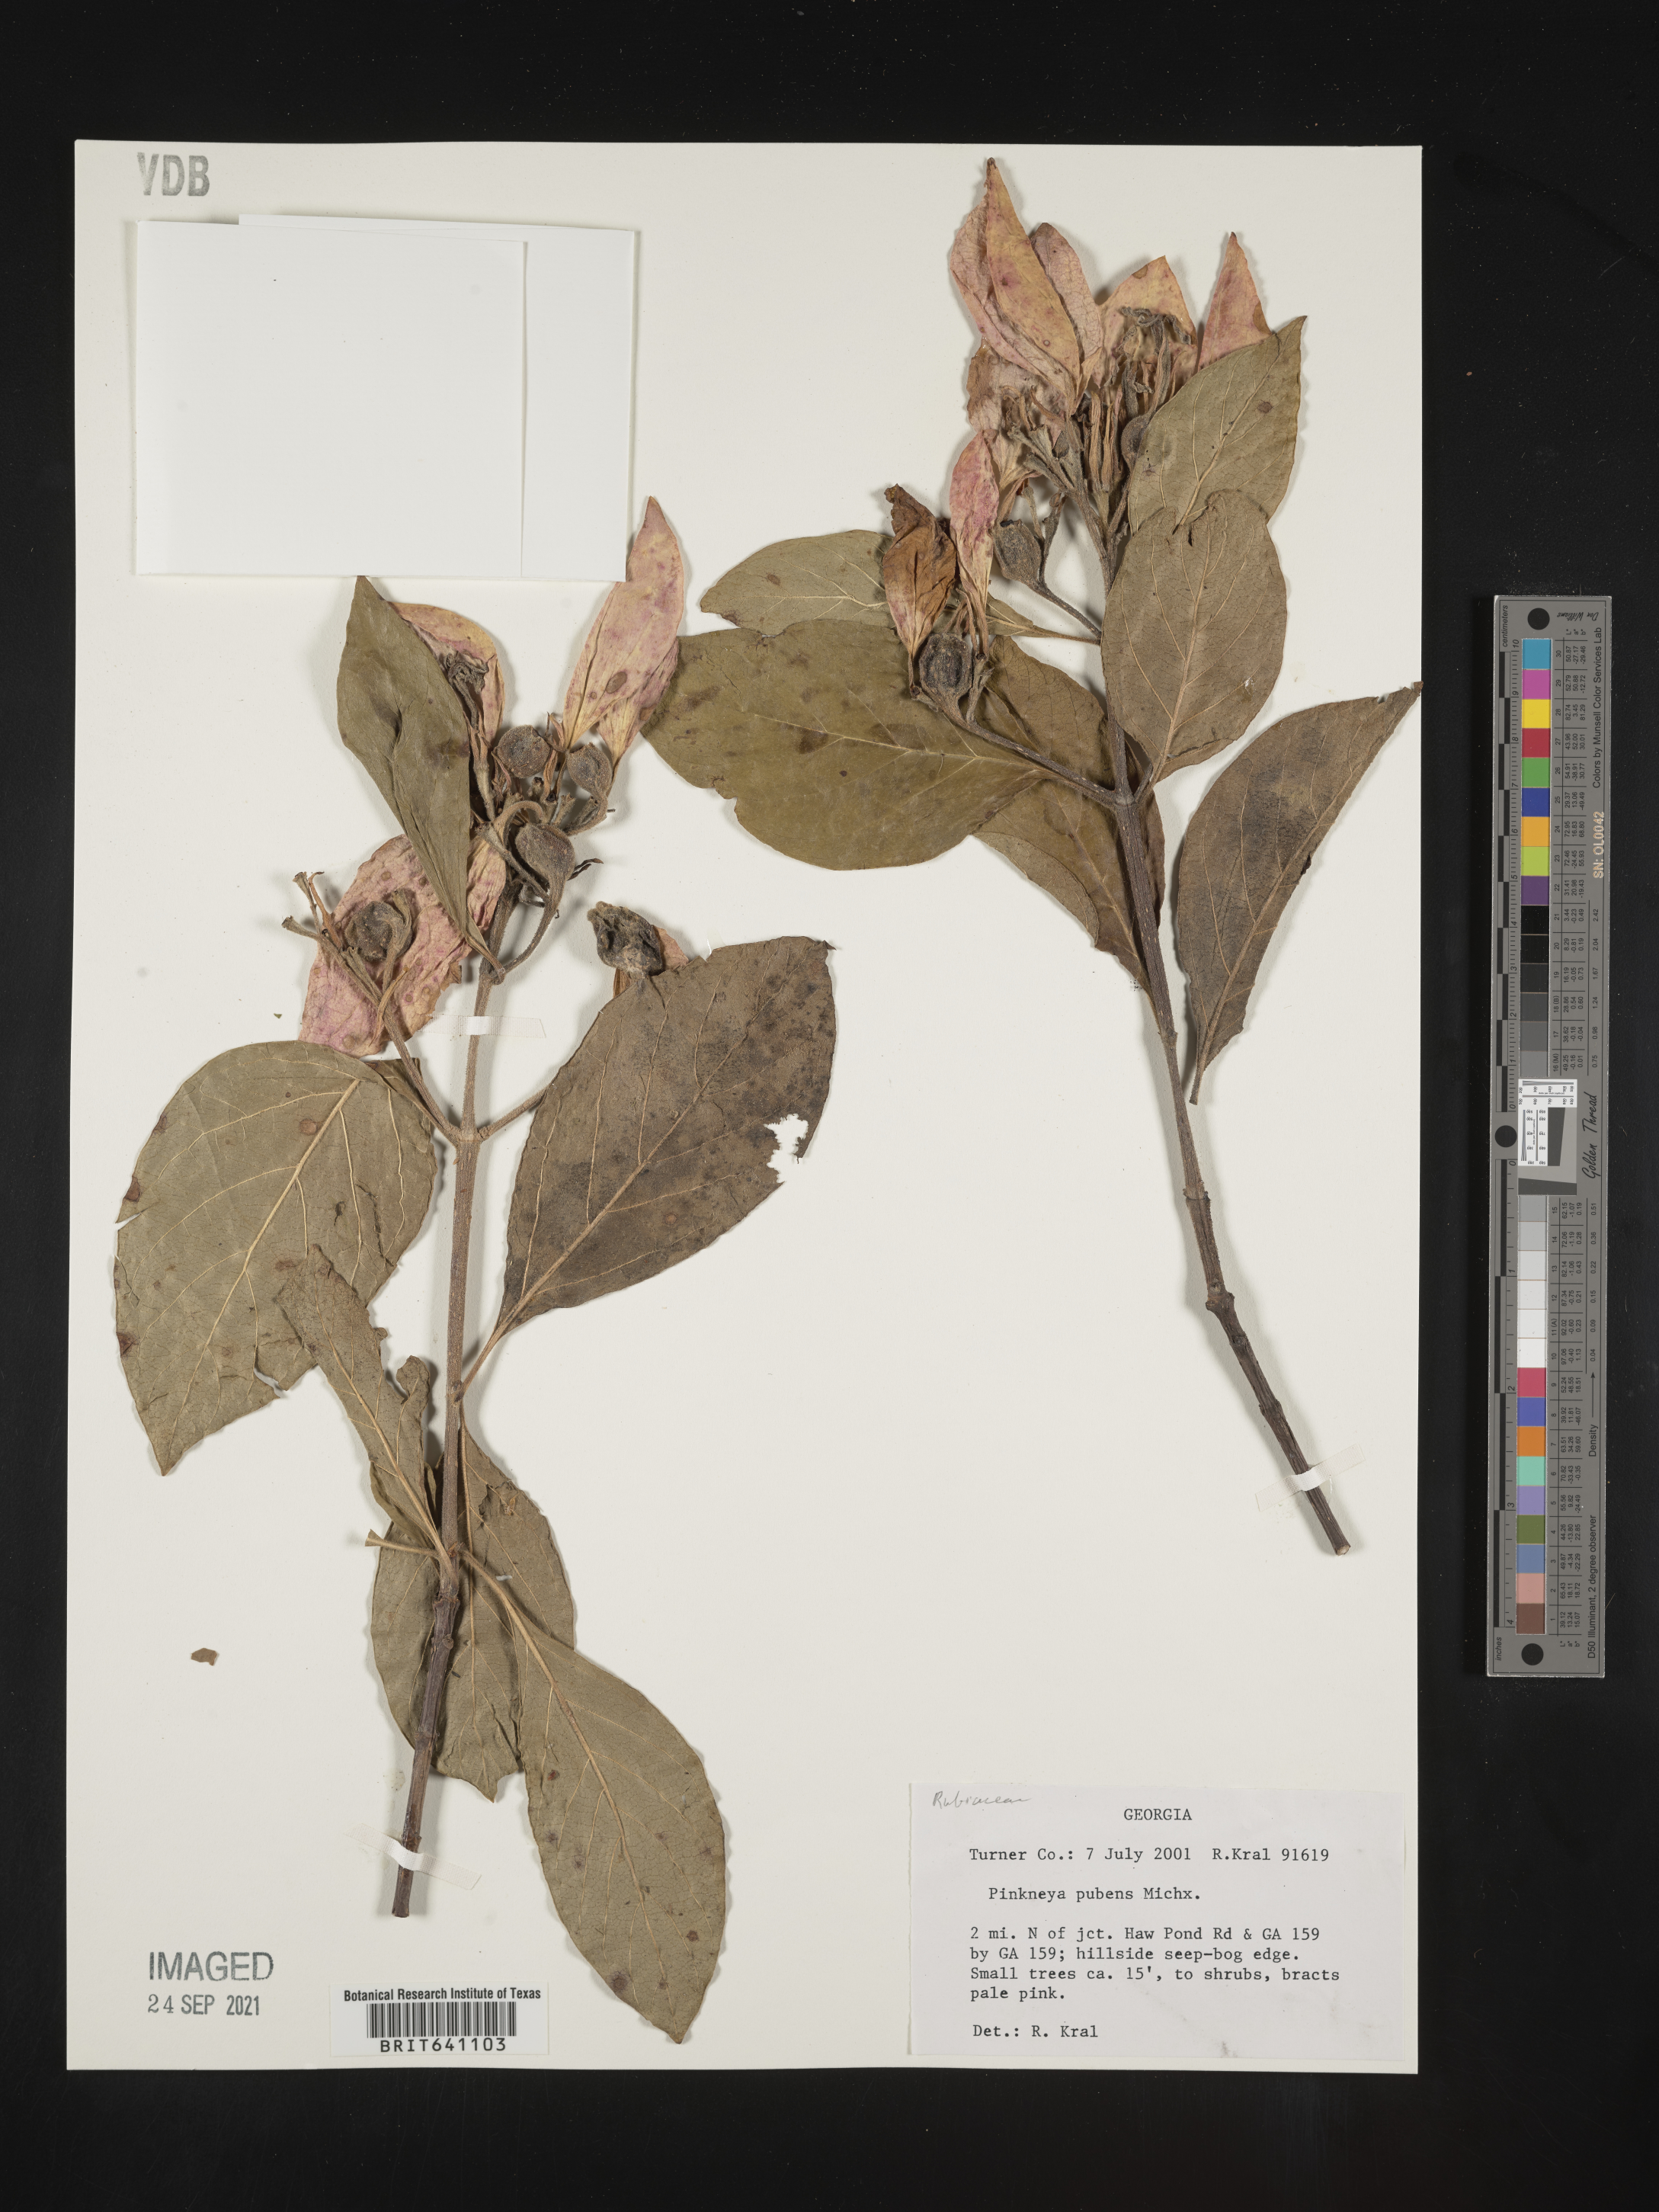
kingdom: Plantae
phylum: Tracheophyta
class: Magnoliopsida
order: Gentianales
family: Rubiaceae
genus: Pinckneya
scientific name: Pinckneya pubens
